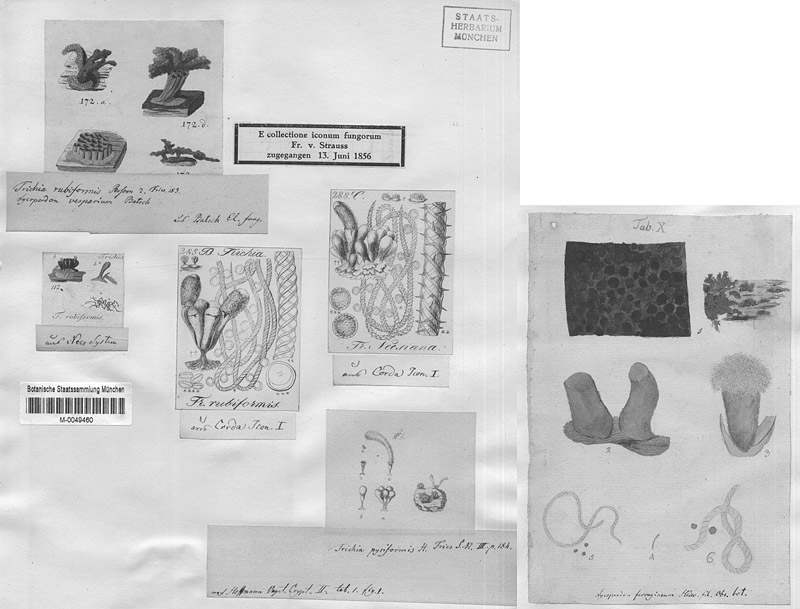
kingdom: Protozoa
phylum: Mycetozoa
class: Myxomycetes
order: Trichiales
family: Trichiaceae
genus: Metatrichia
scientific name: Metatrichia vesparia
